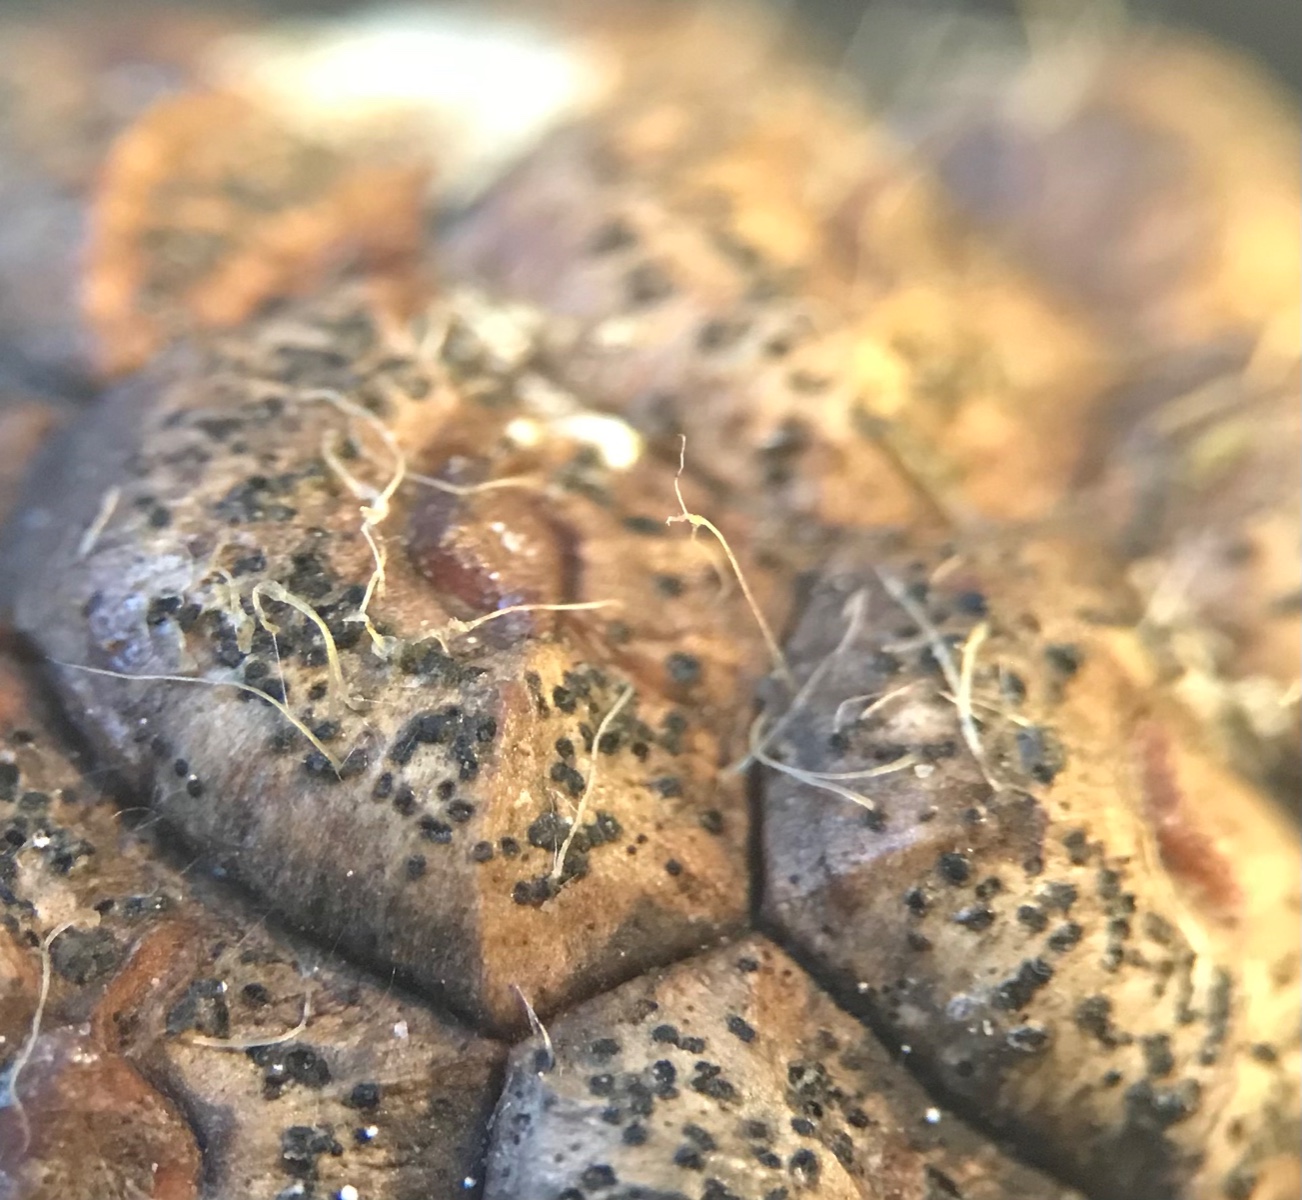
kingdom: Fungi
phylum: Ascomycota
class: Dothideomycetes
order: Botryosphaeriales
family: Botryosphaeriaceae
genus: Sphaeropsis
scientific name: Sphaeropsis sapinea
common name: Sphaeropsis blight
